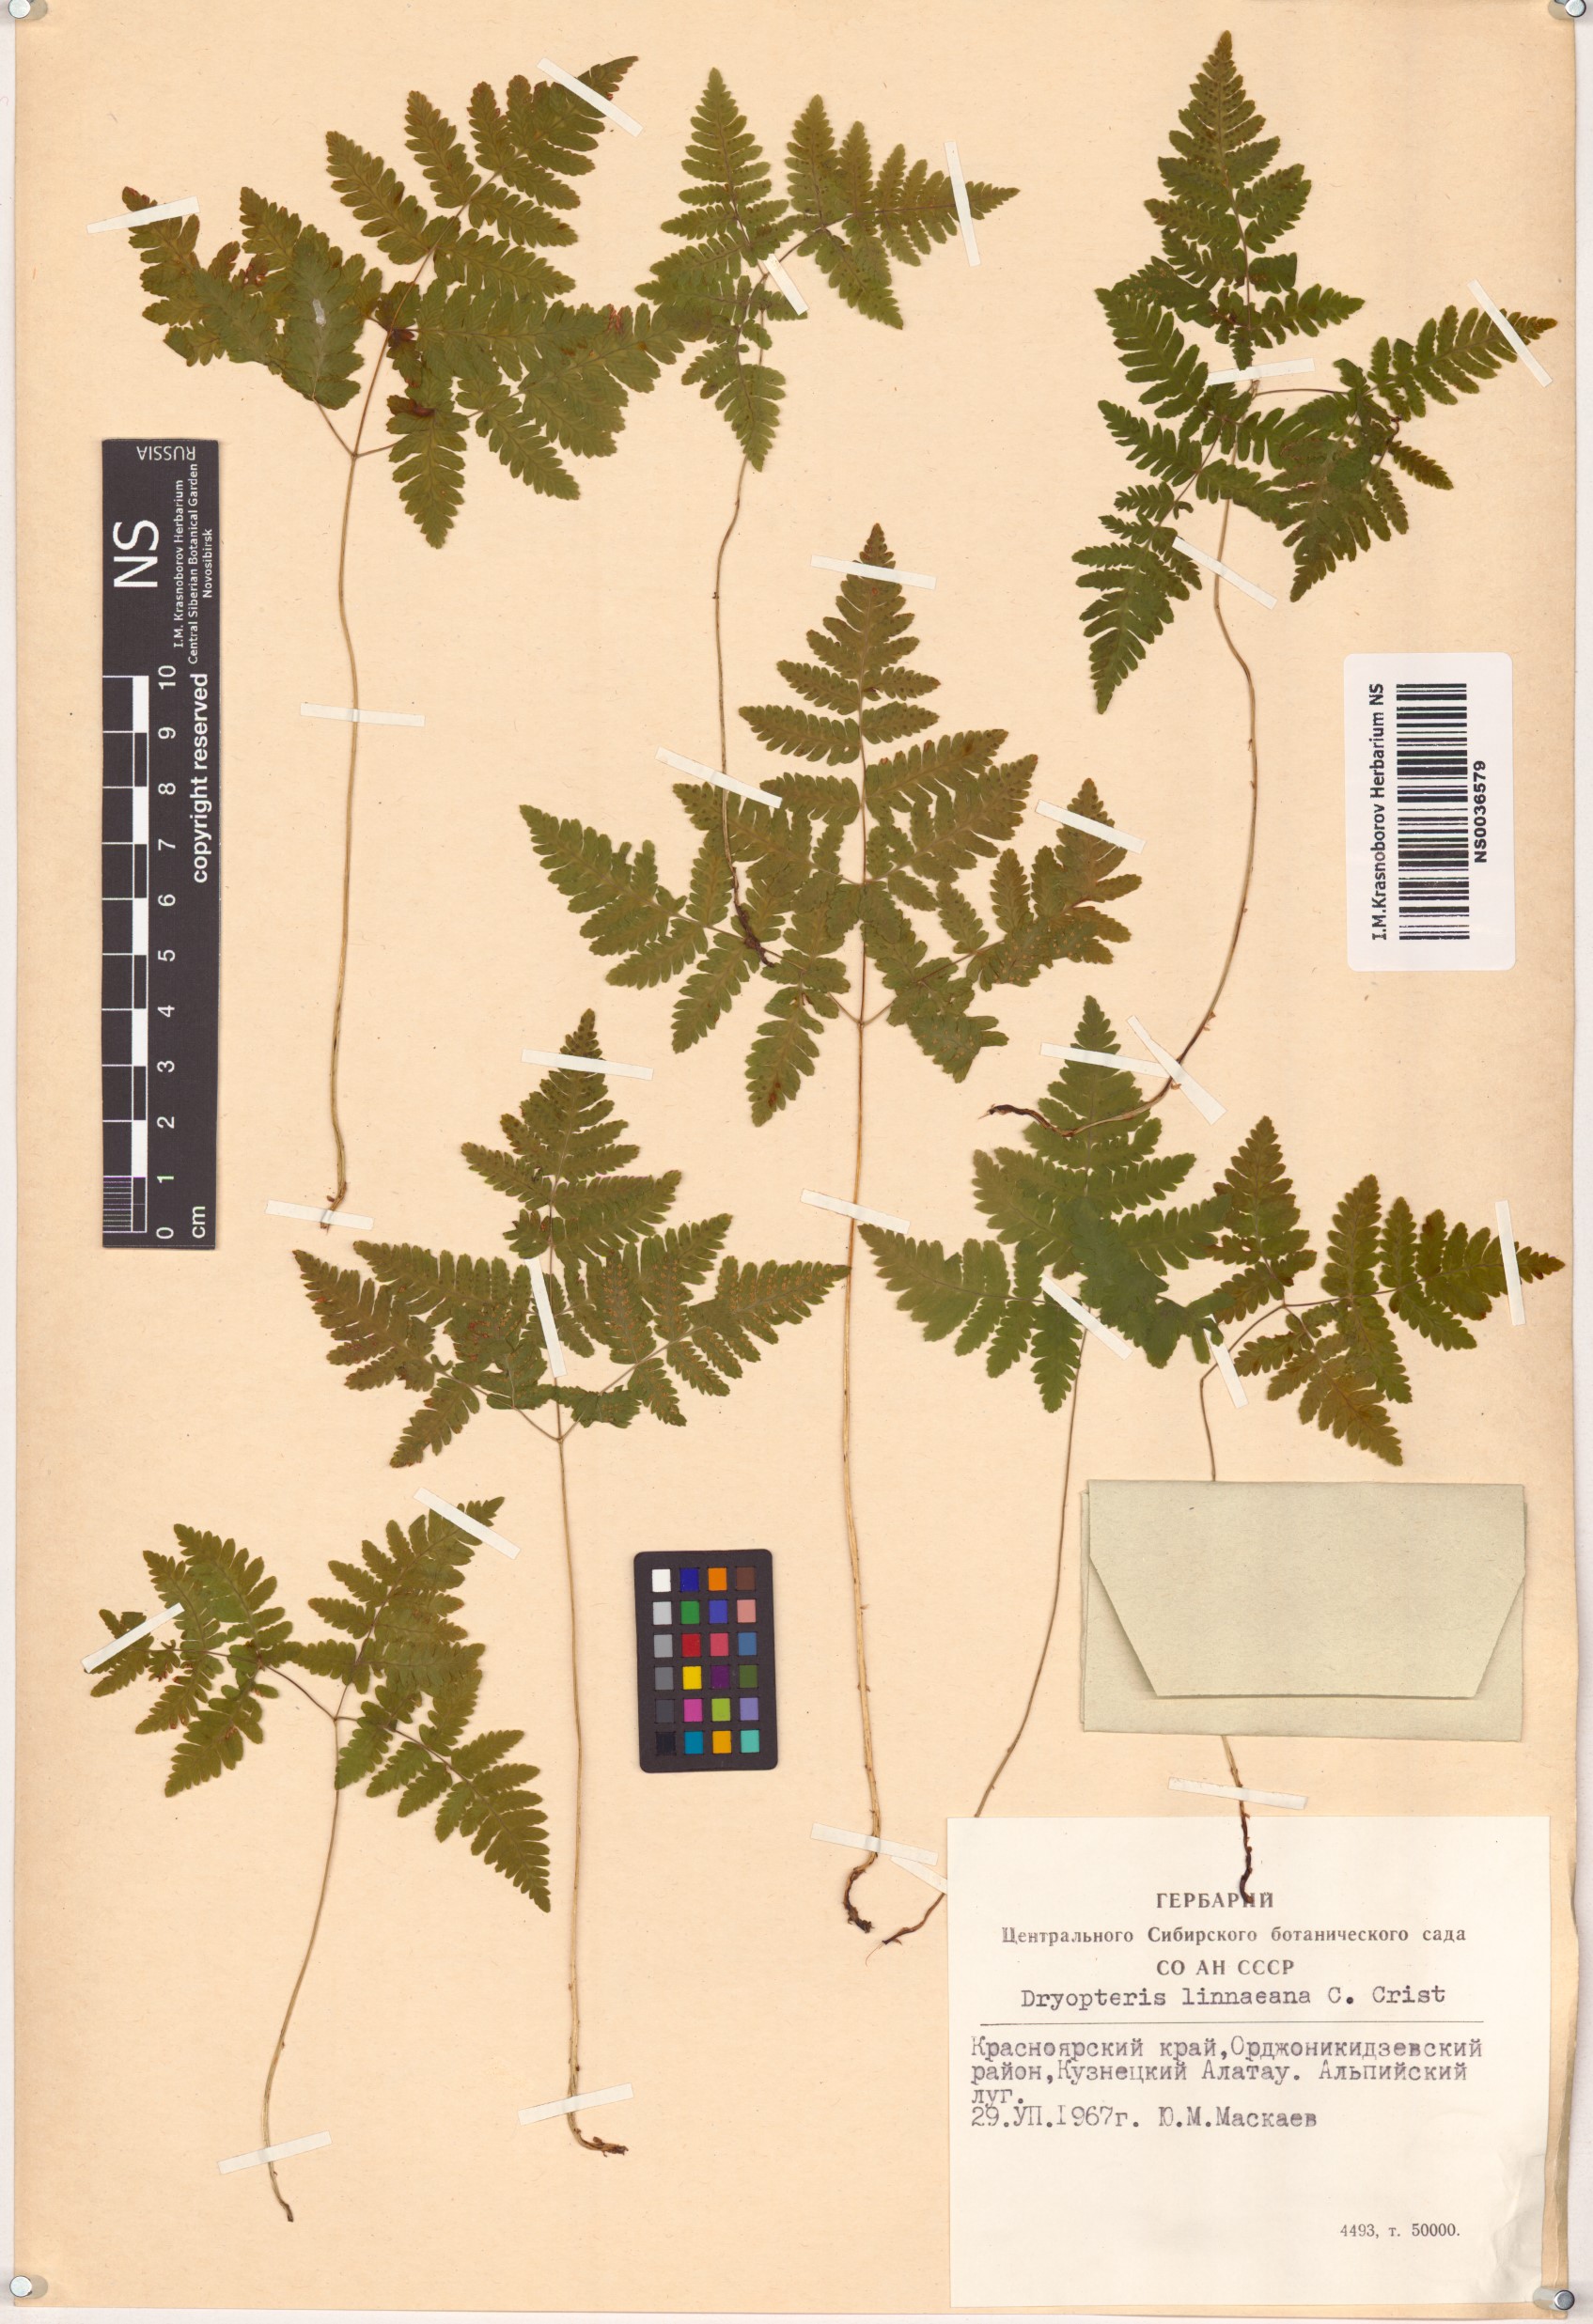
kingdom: Plantae
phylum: Tracheophyta
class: Polypodiopsida
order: Polypodiales
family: Cystopteridaceae
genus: Gymnocarpium
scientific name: Gymnocarpium dryopteris
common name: Oak fern
